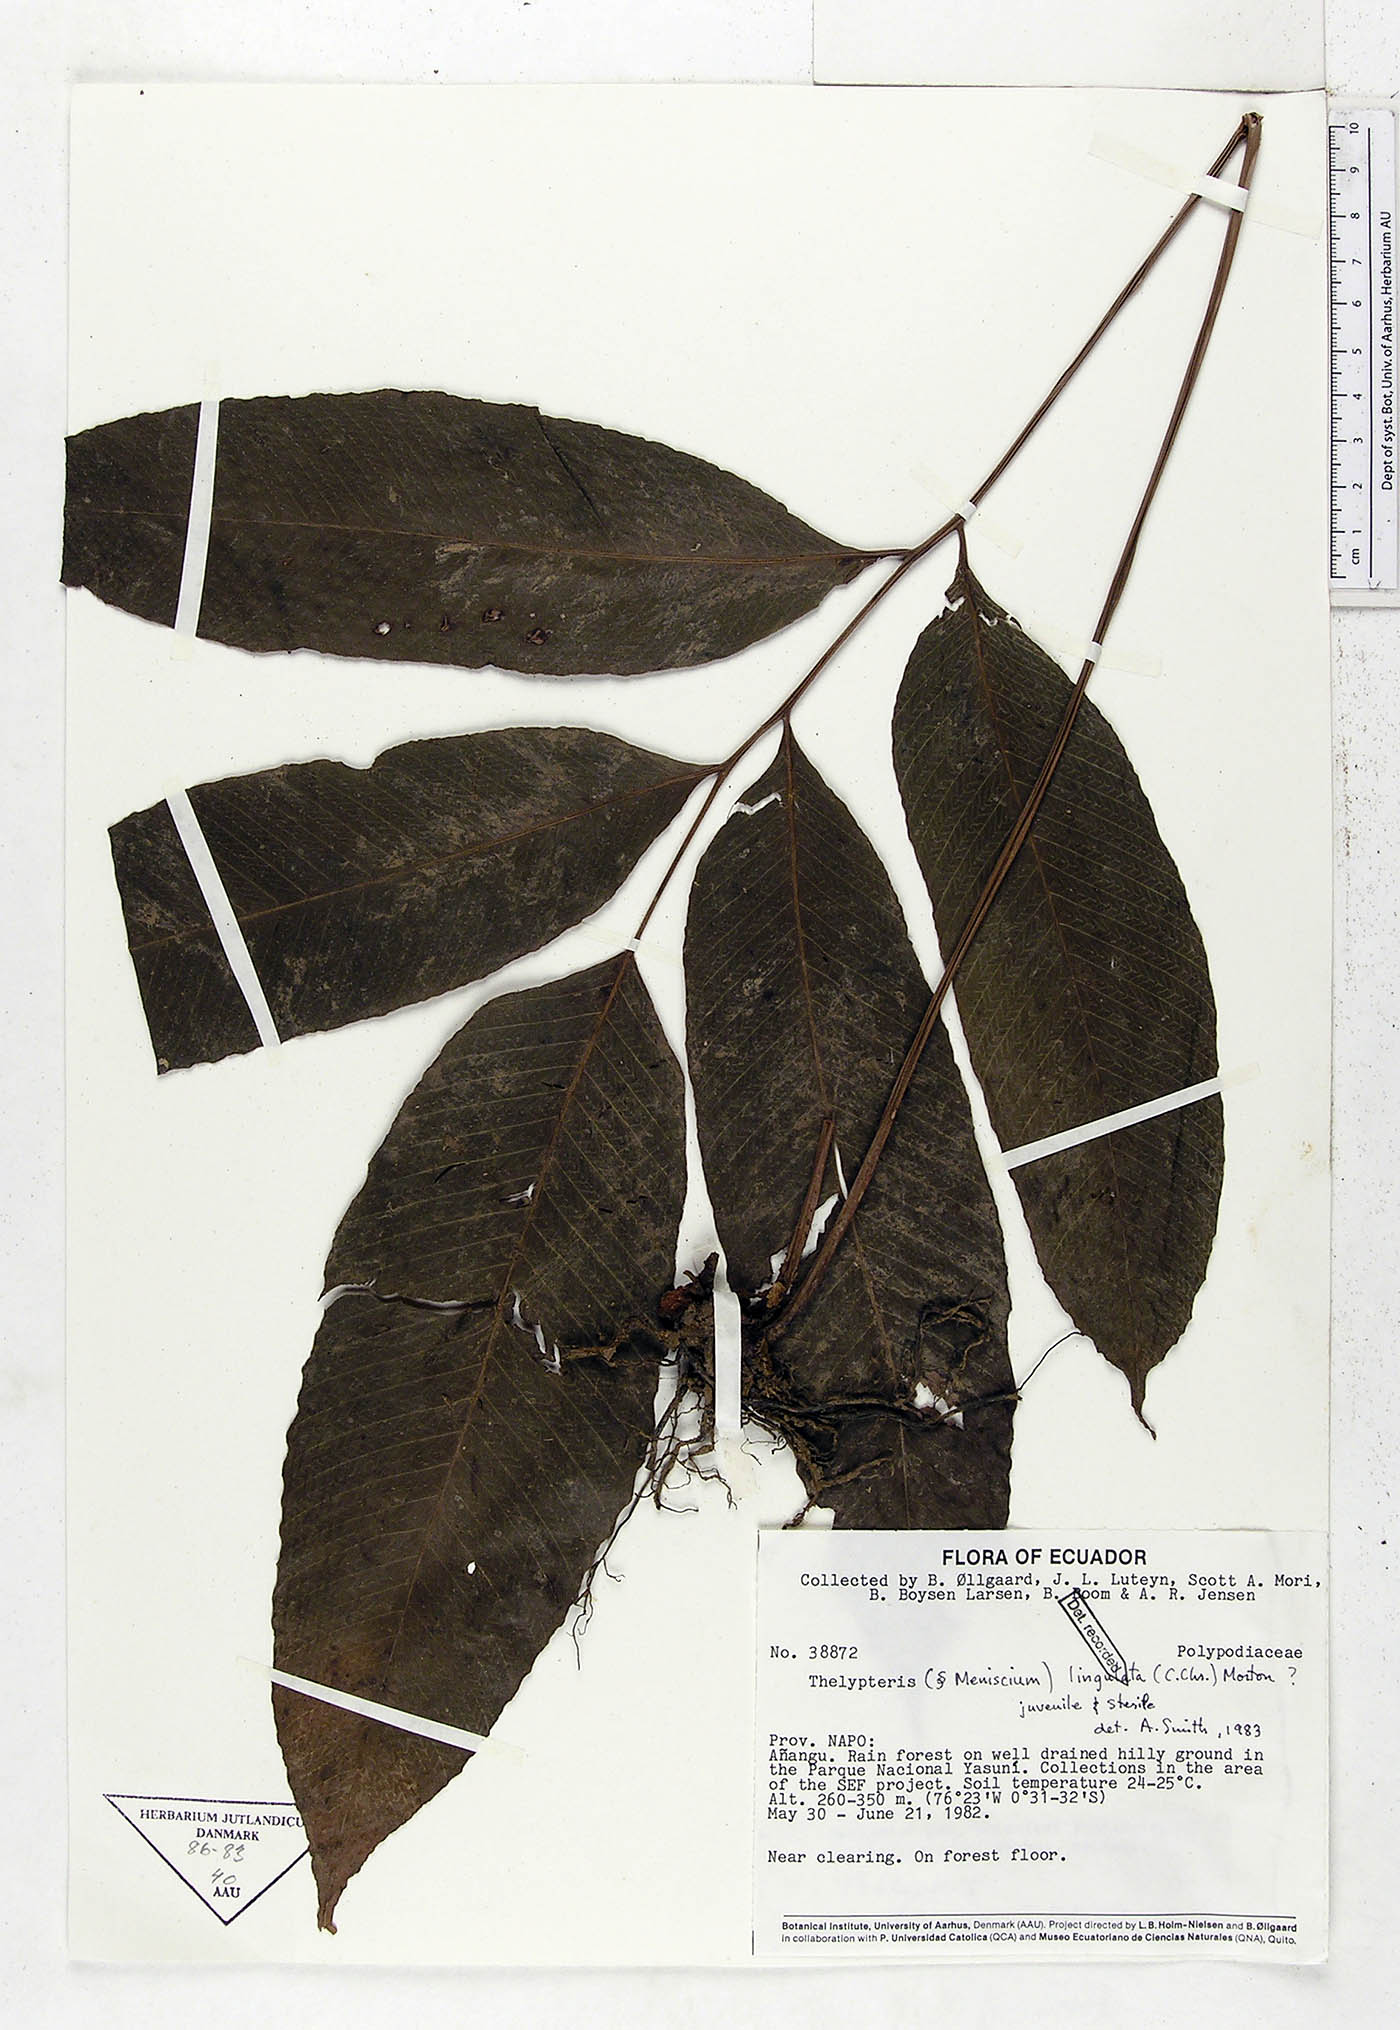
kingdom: Plantae
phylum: Tracheophyta
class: Polypodiopsida
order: Polypodiales
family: Thelypteridaceae
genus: Meniscium
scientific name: Meniscium lingulatum
